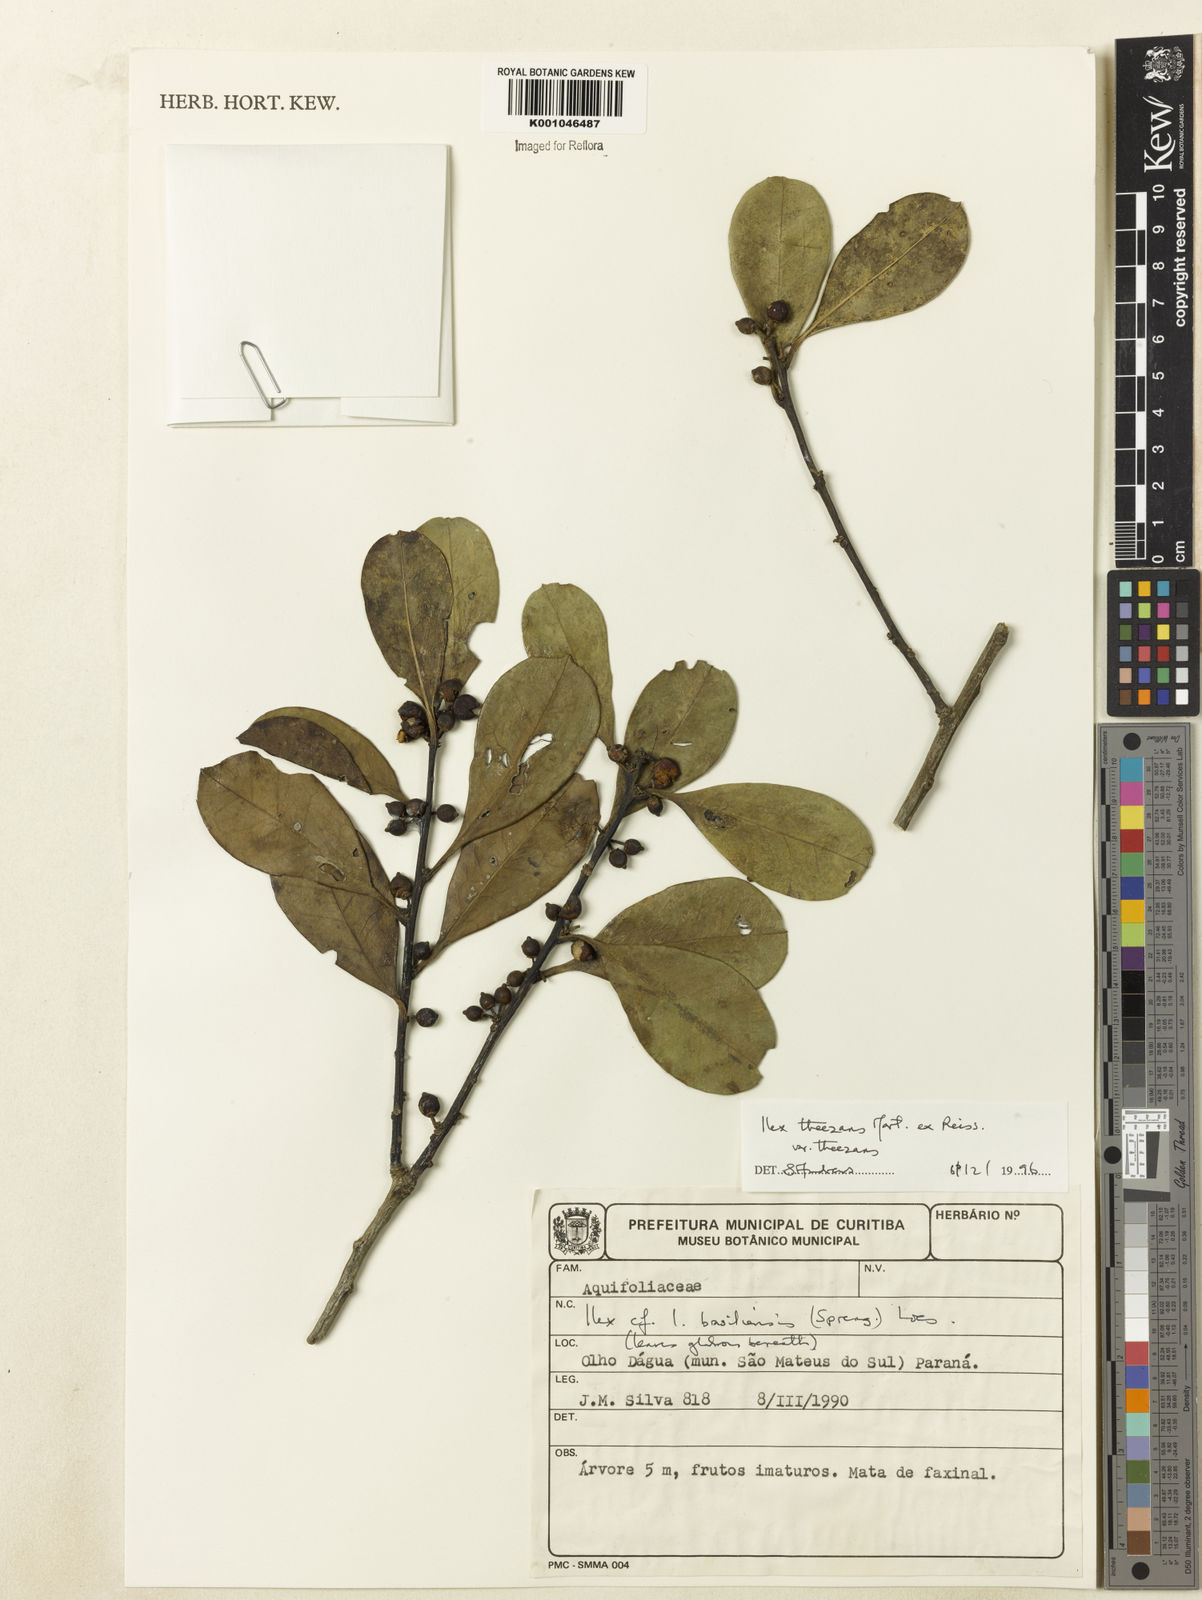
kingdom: Plantae
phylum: Tracheophyta
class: Magnoliopsida
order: Aquifoliales
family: Aquifoliaceae
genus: Ilex
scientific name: Ilex paraguariensis
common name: Paraguay tea
